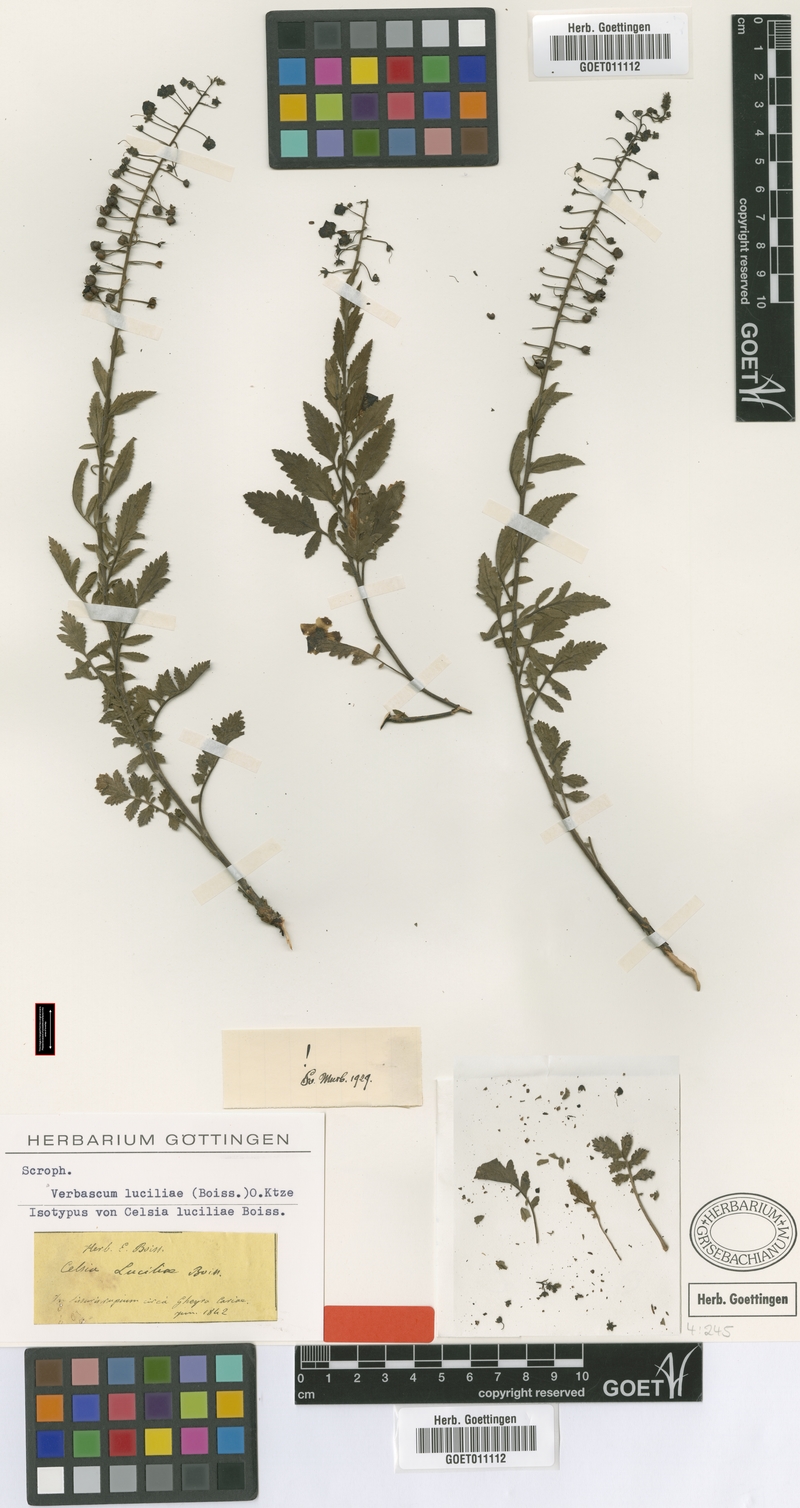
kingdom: Plantae
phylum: Tracheophyta
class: Magnoliopsida
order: Lamiales
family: Scrophulariaceae
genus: Verbascum
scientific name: Verbascum luciliae
